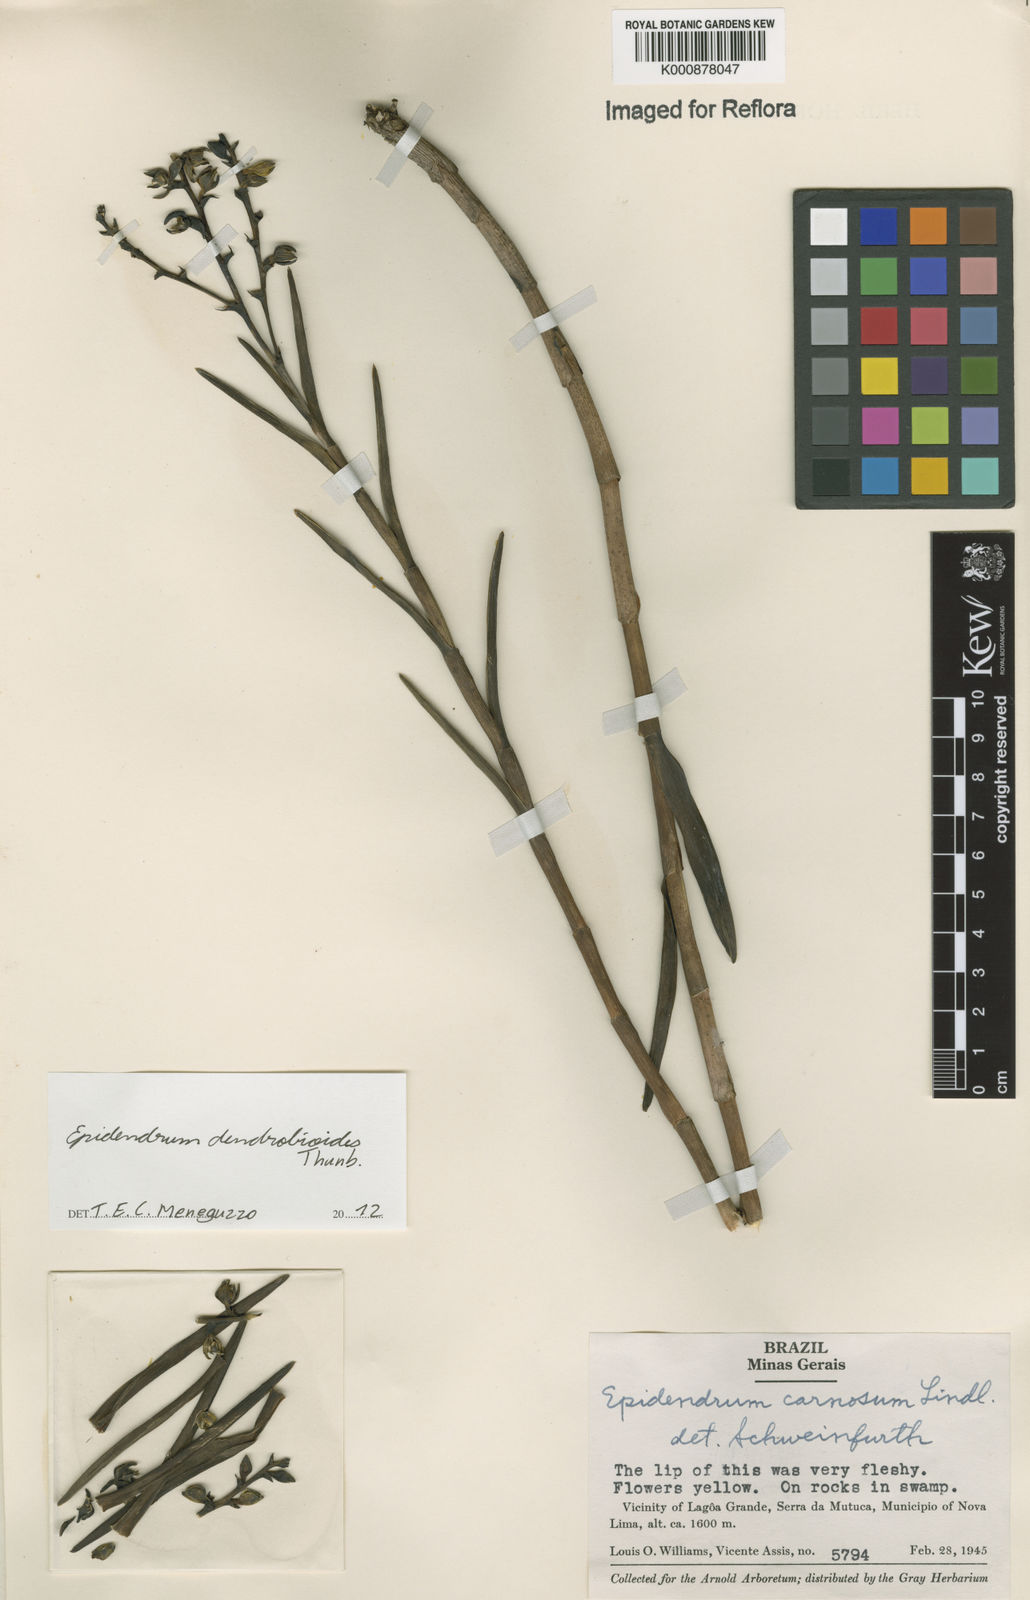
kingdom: Plantae
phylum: Tracheophyta
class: Liliopsida
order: Asparagales
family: Orchidaceae
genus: Epidendrum
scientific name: Epidendrum dendrobioides
